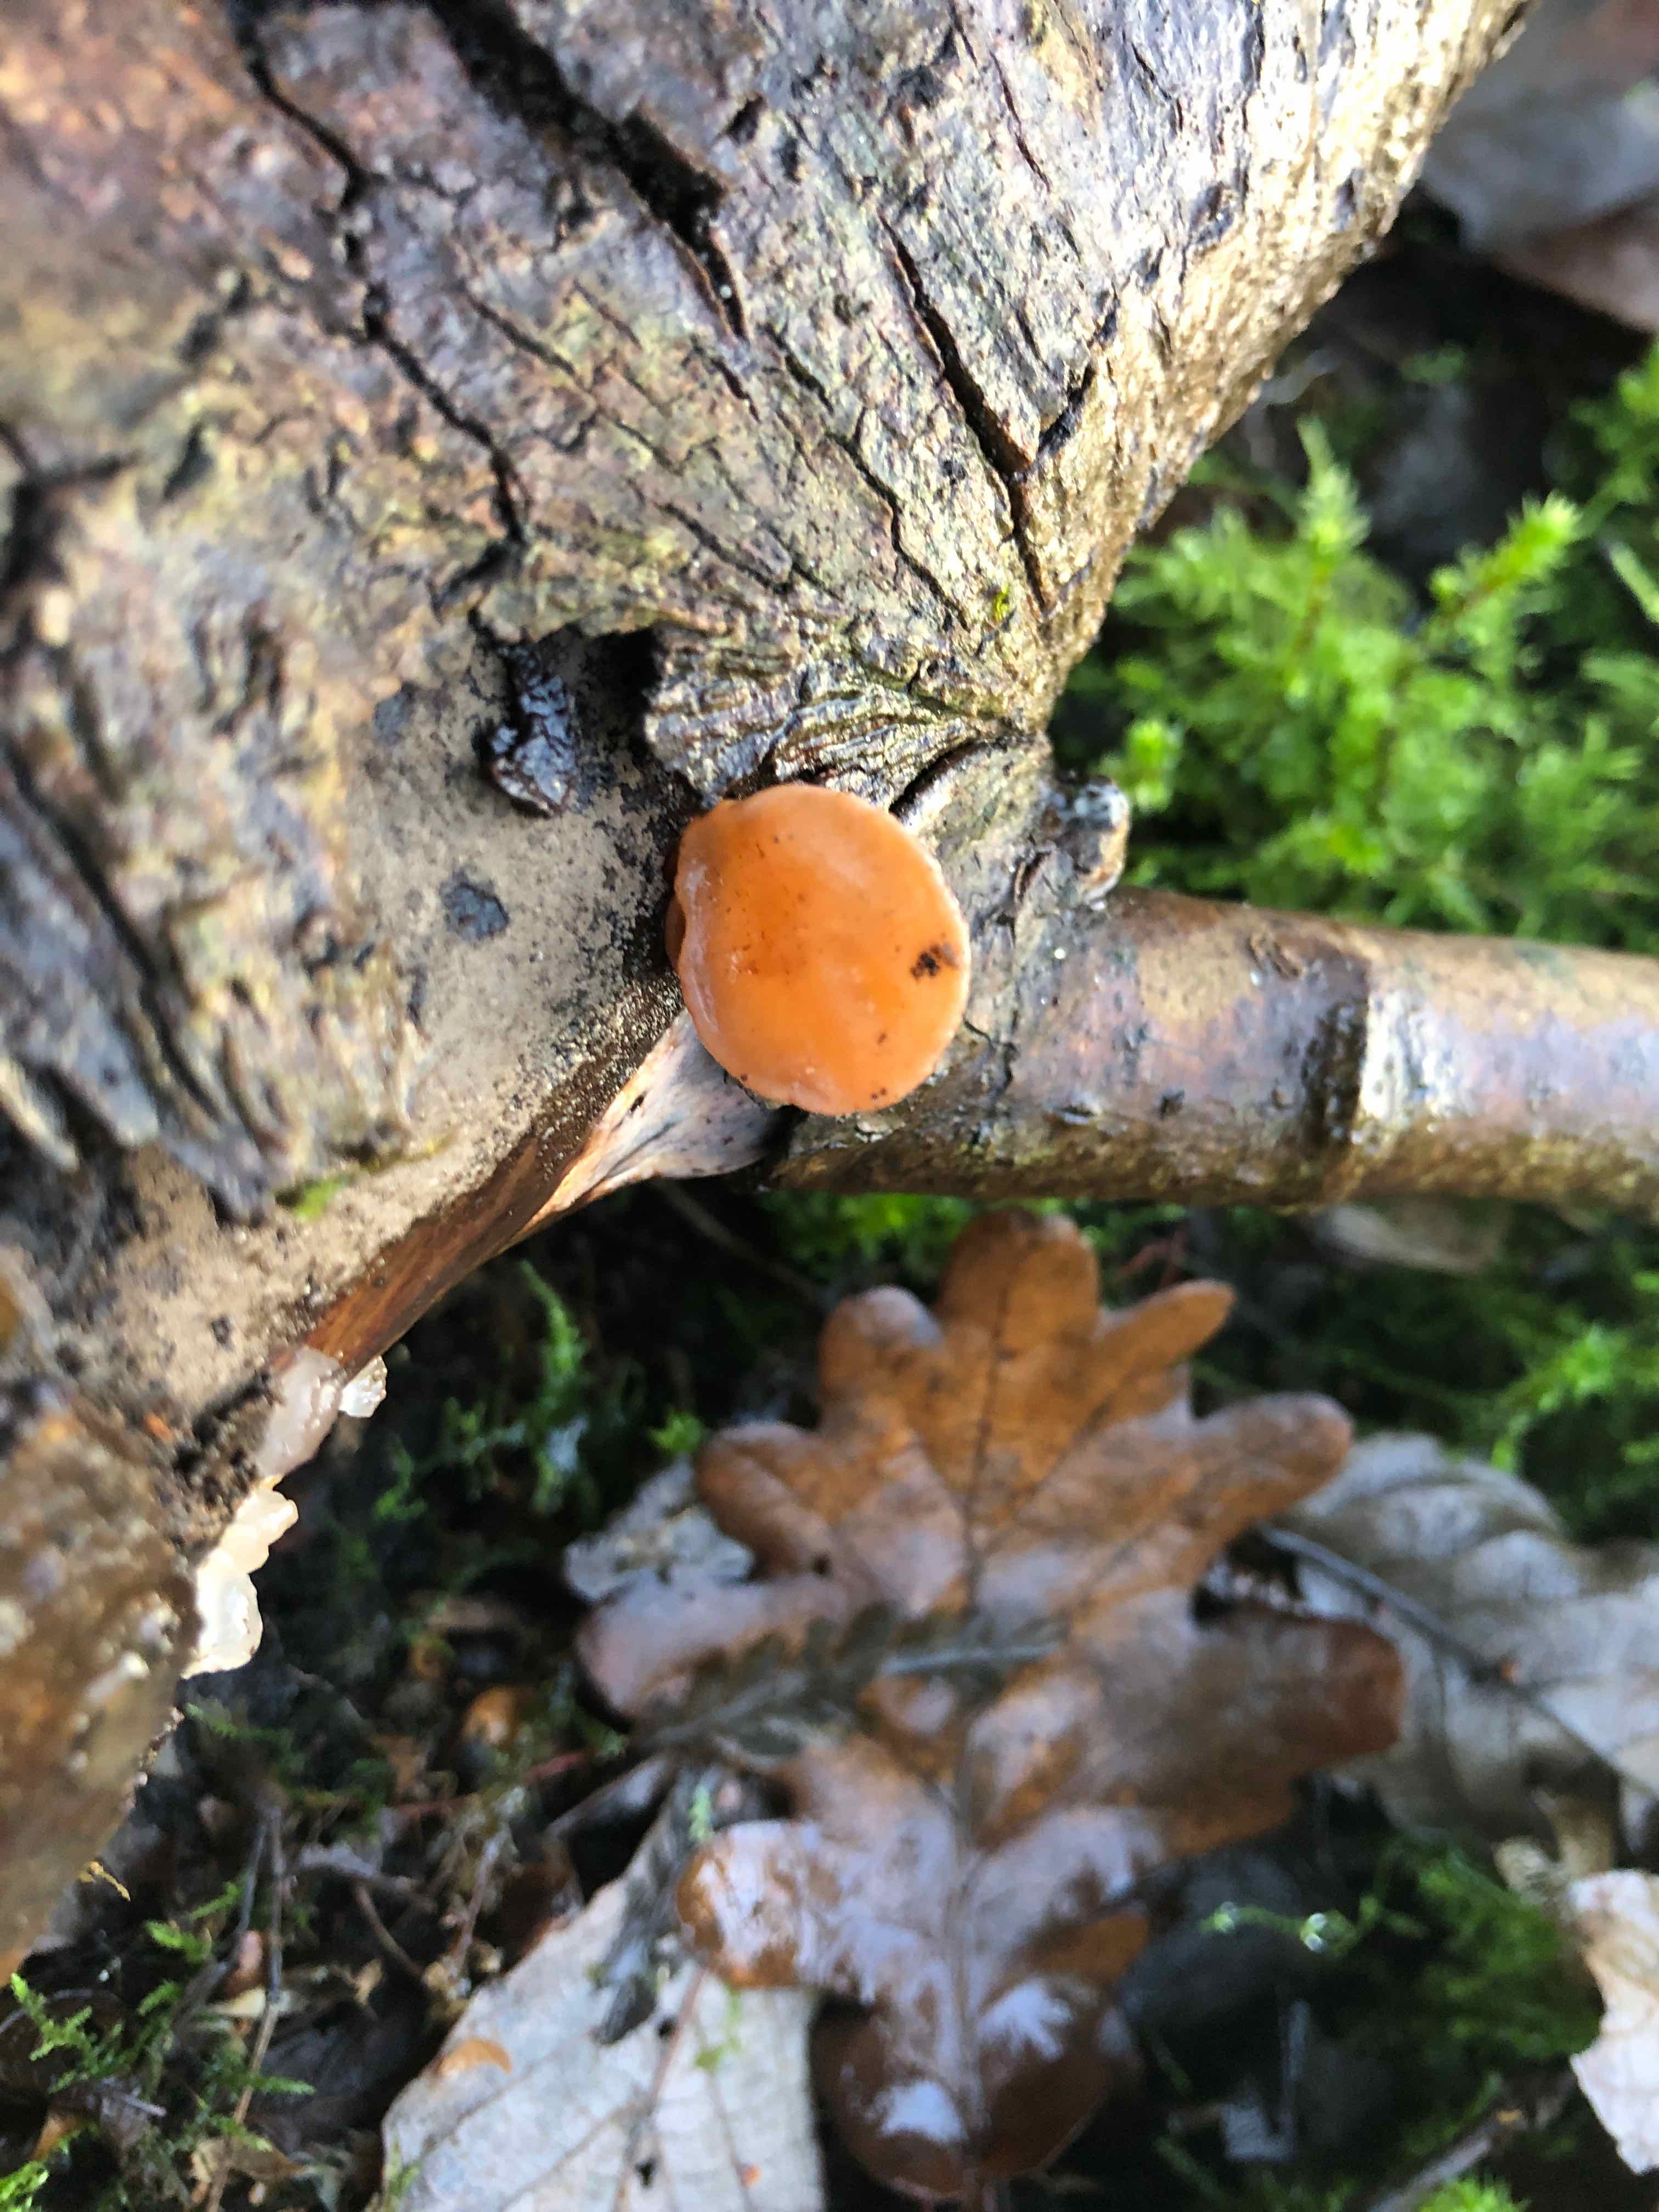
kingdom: Fungi
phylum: Basidiomycota
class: Agaricomycetes
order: Auriculariales
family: Auriculariaceae
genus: Auricularia
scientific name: Auricularia auricula-judae
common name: almindelig judasøre
